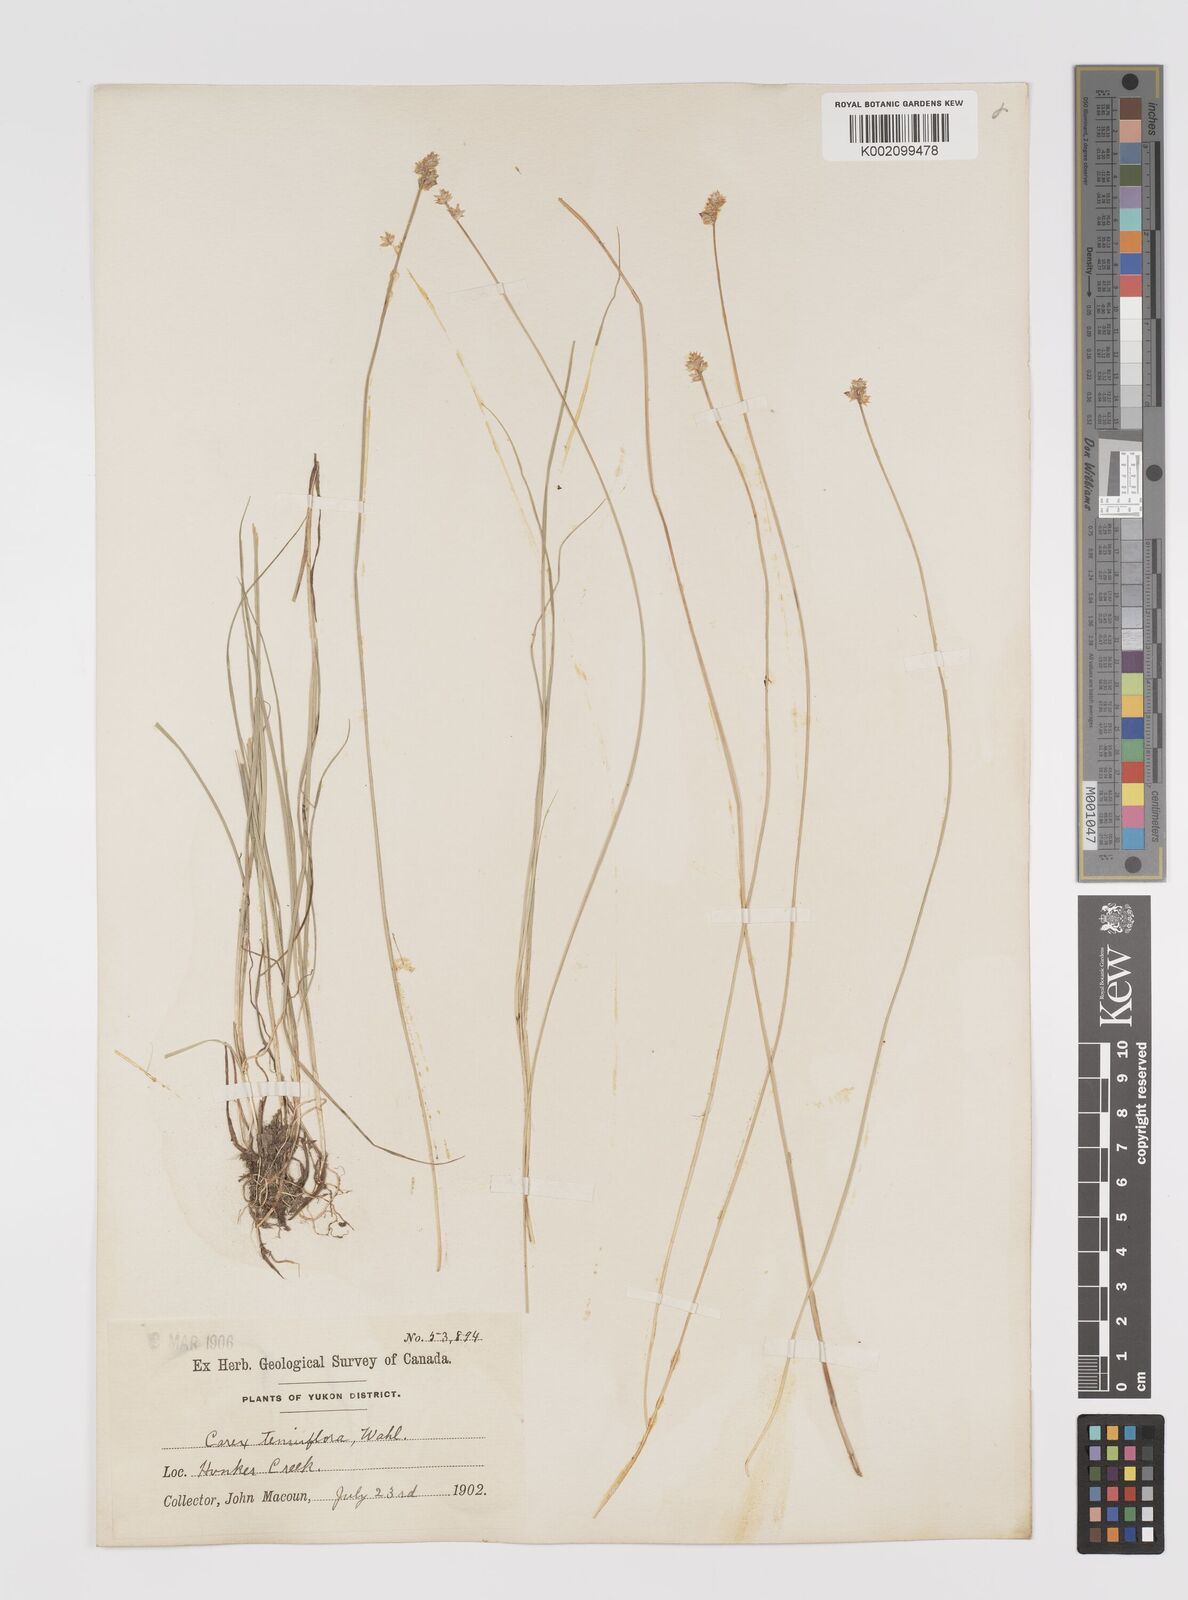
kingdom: Plantae
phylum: Tracheophyta
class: Liliopsida
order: Poales
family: Cyperaceae
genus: Carex
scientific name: Carex tenuiflora
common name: Sparse-flowered sedge
